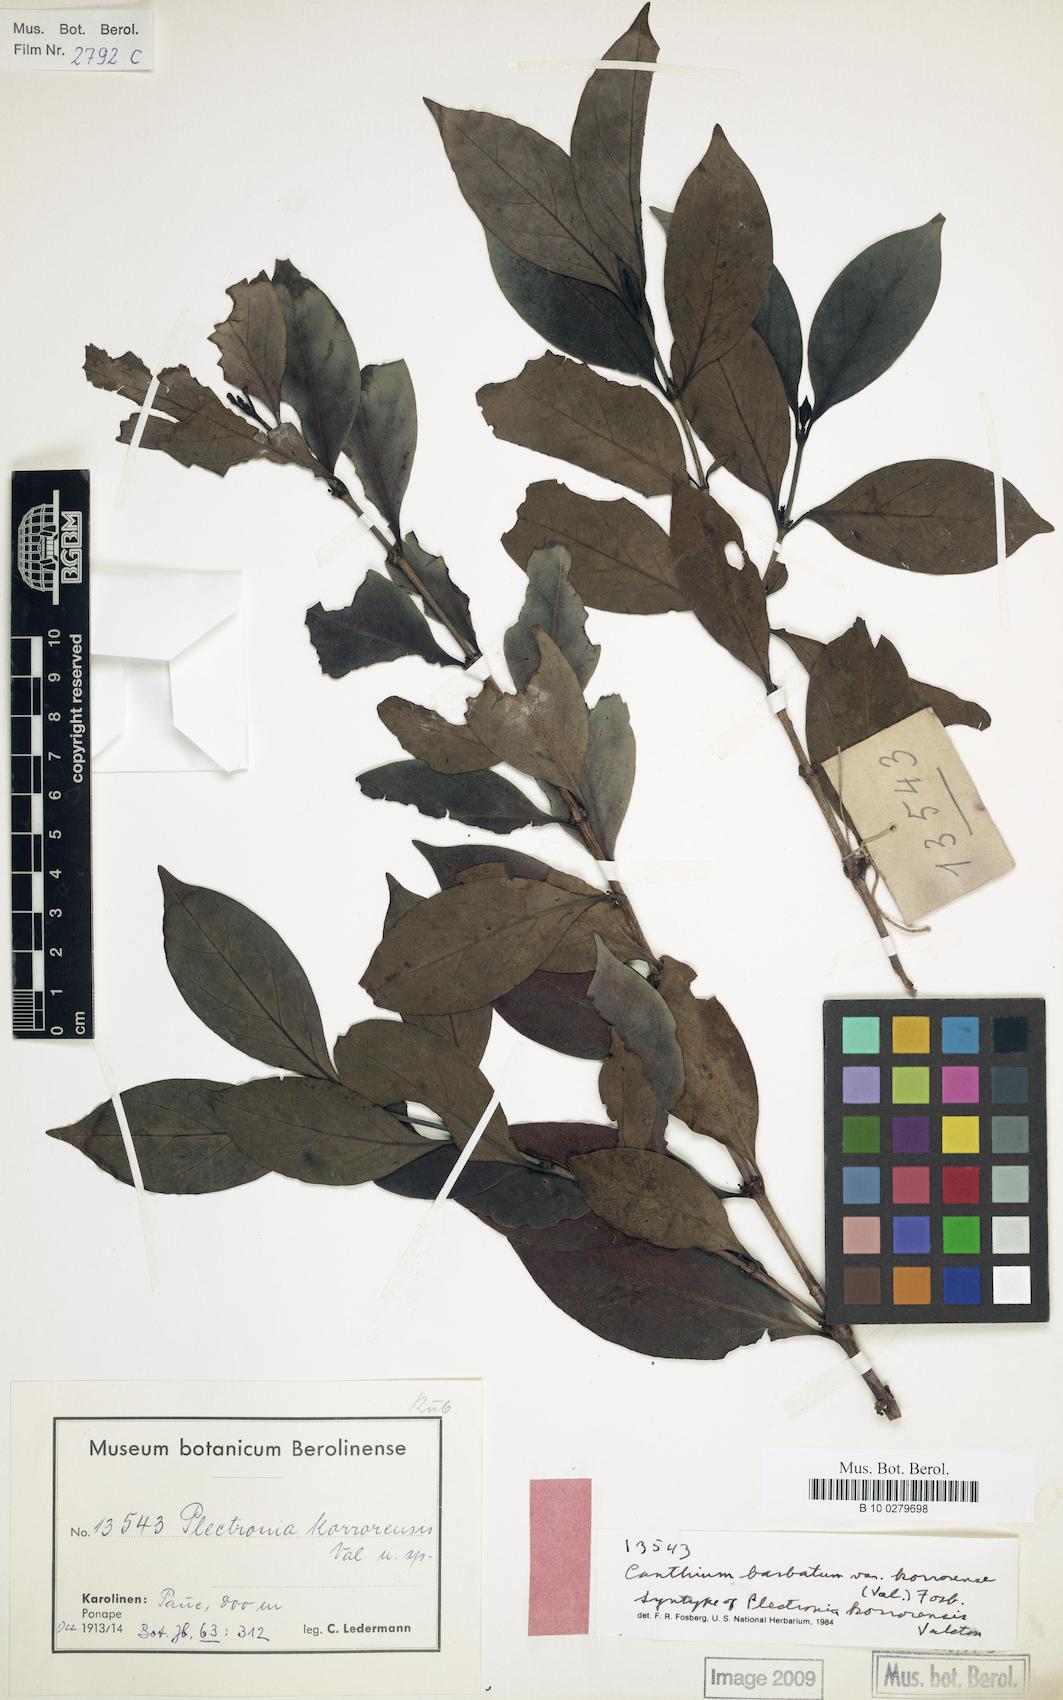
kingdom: Plantae
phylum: Tracheophyta
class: Magnoliopsida
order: Gentianales
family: Rubiaceae
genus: Cyclophyllum
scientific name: Cyclophyllum barbatum
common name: Cyclophyllum
